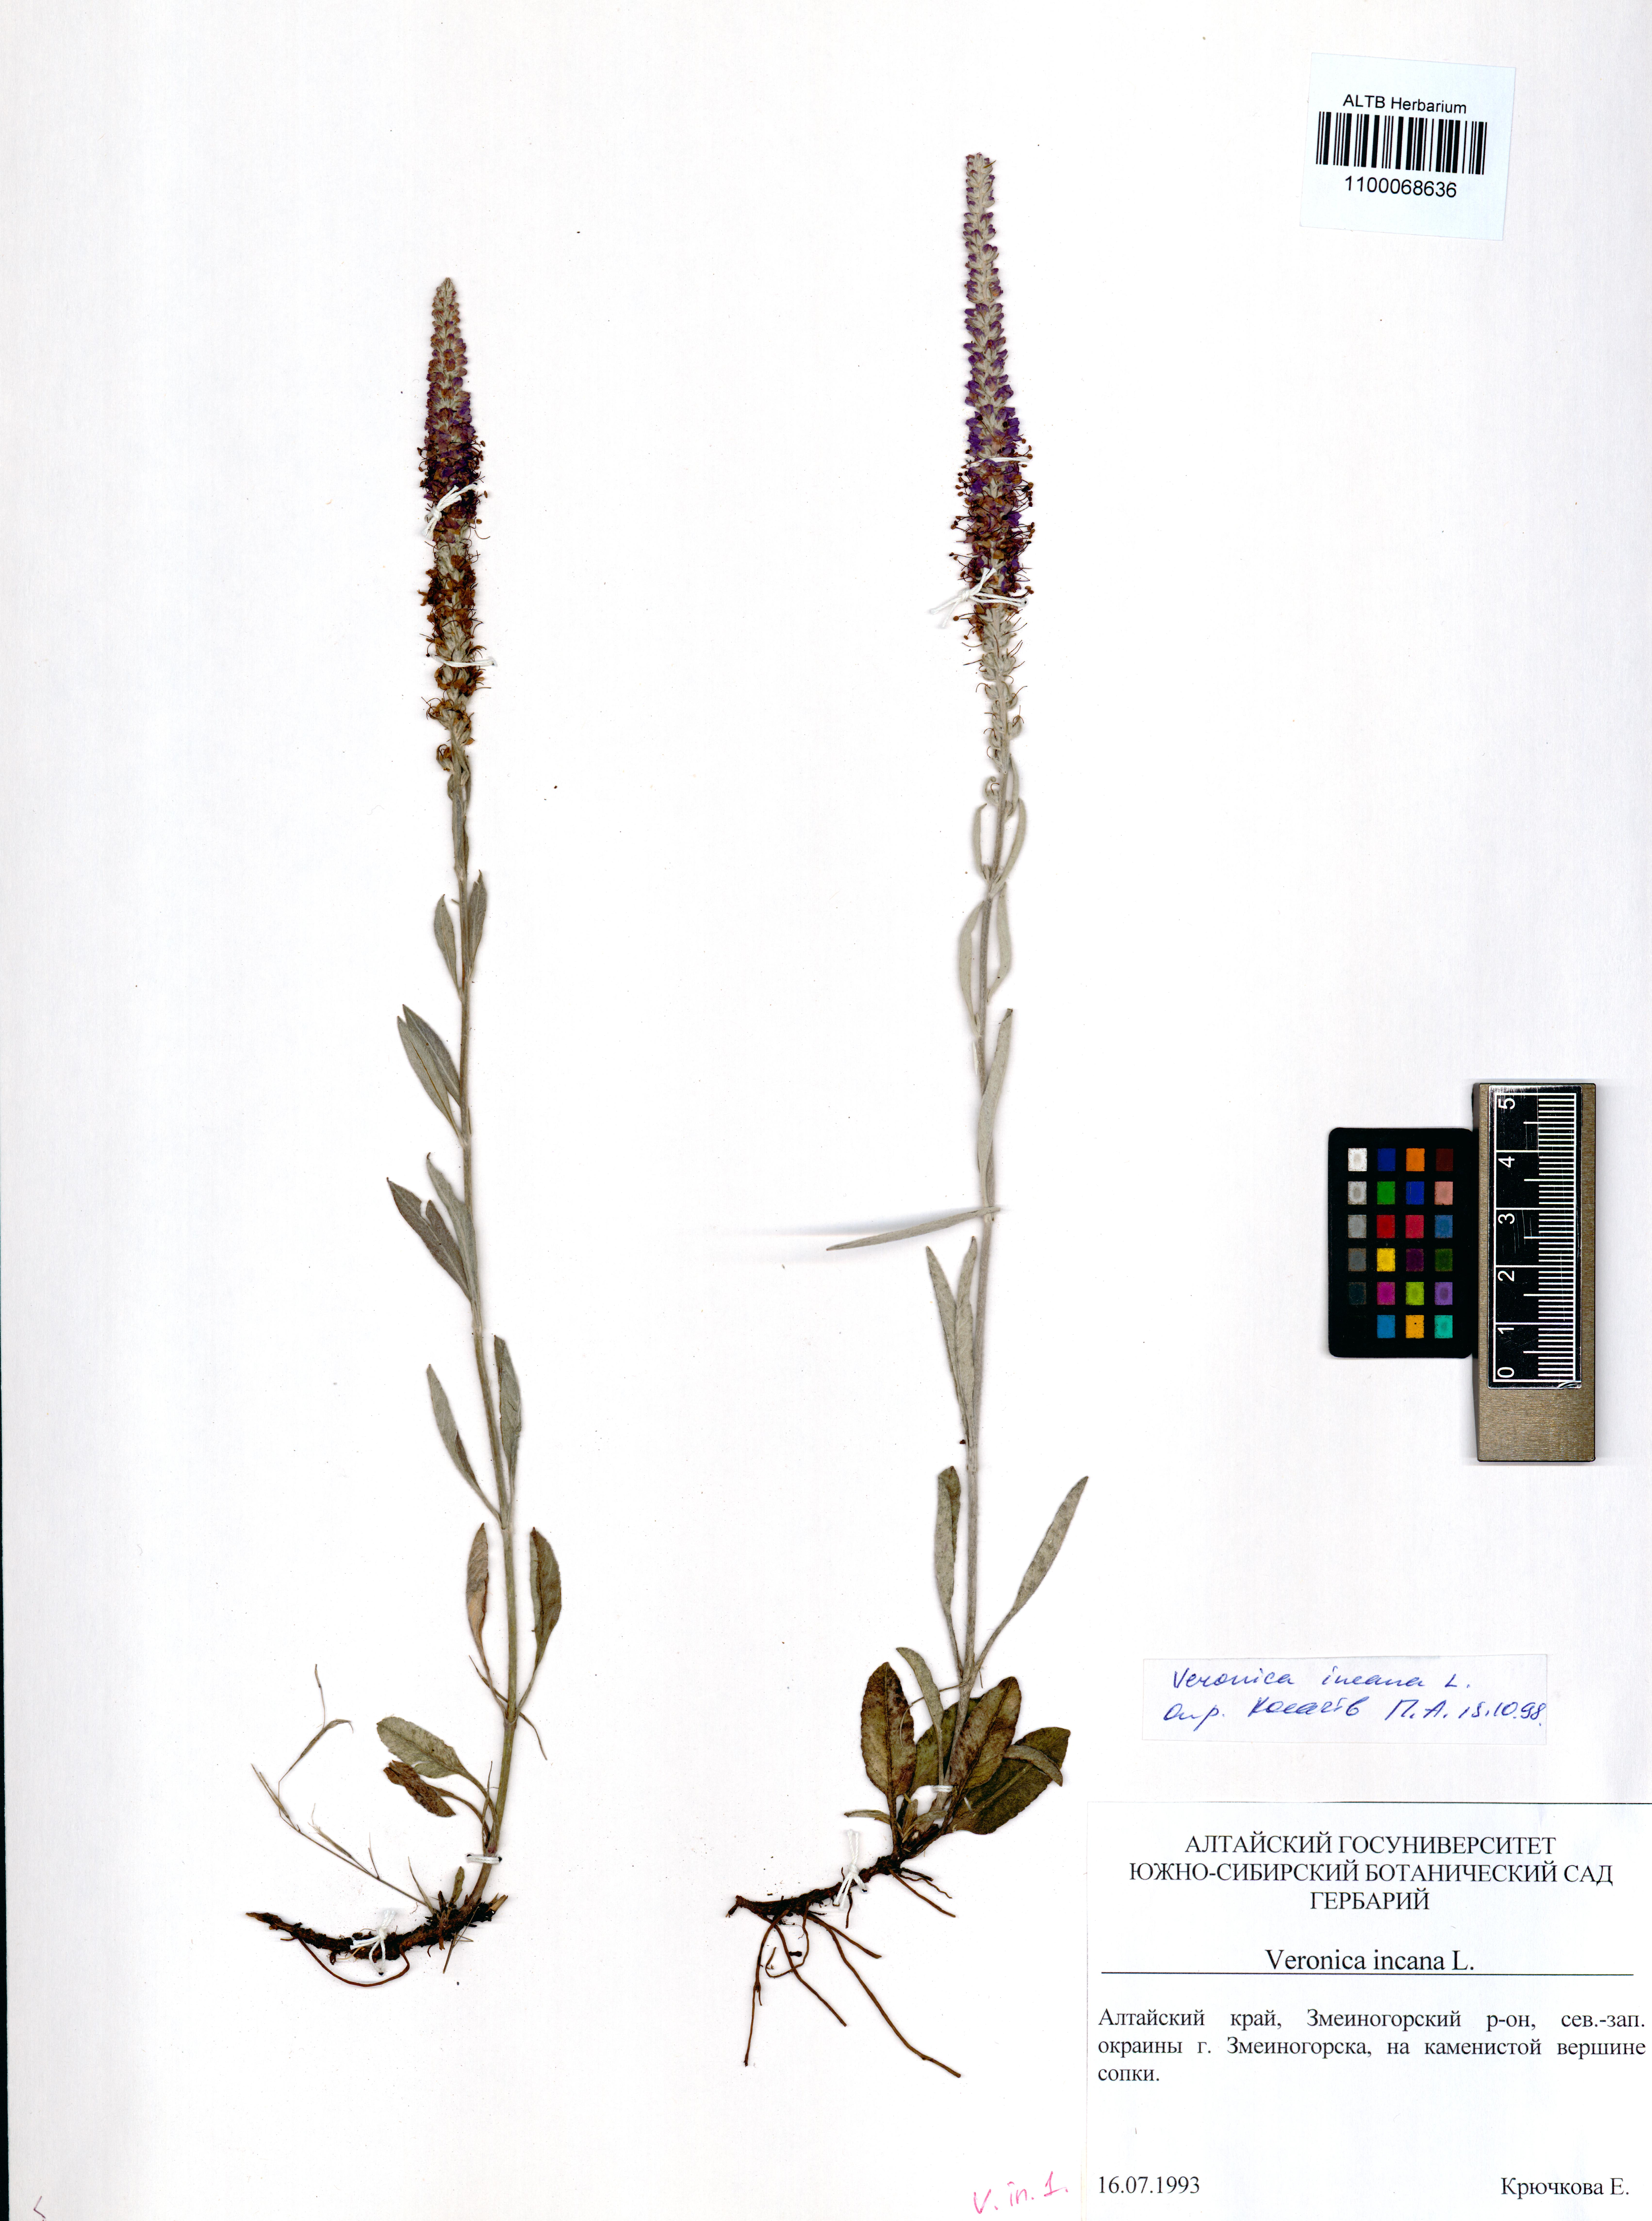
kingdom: Plantae
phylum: Tracheophyta
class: Magnoliopsida
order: Lamiales
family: Plantaginaceae
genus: Veronica
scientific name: Veronica incana
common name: Silver speedwell
